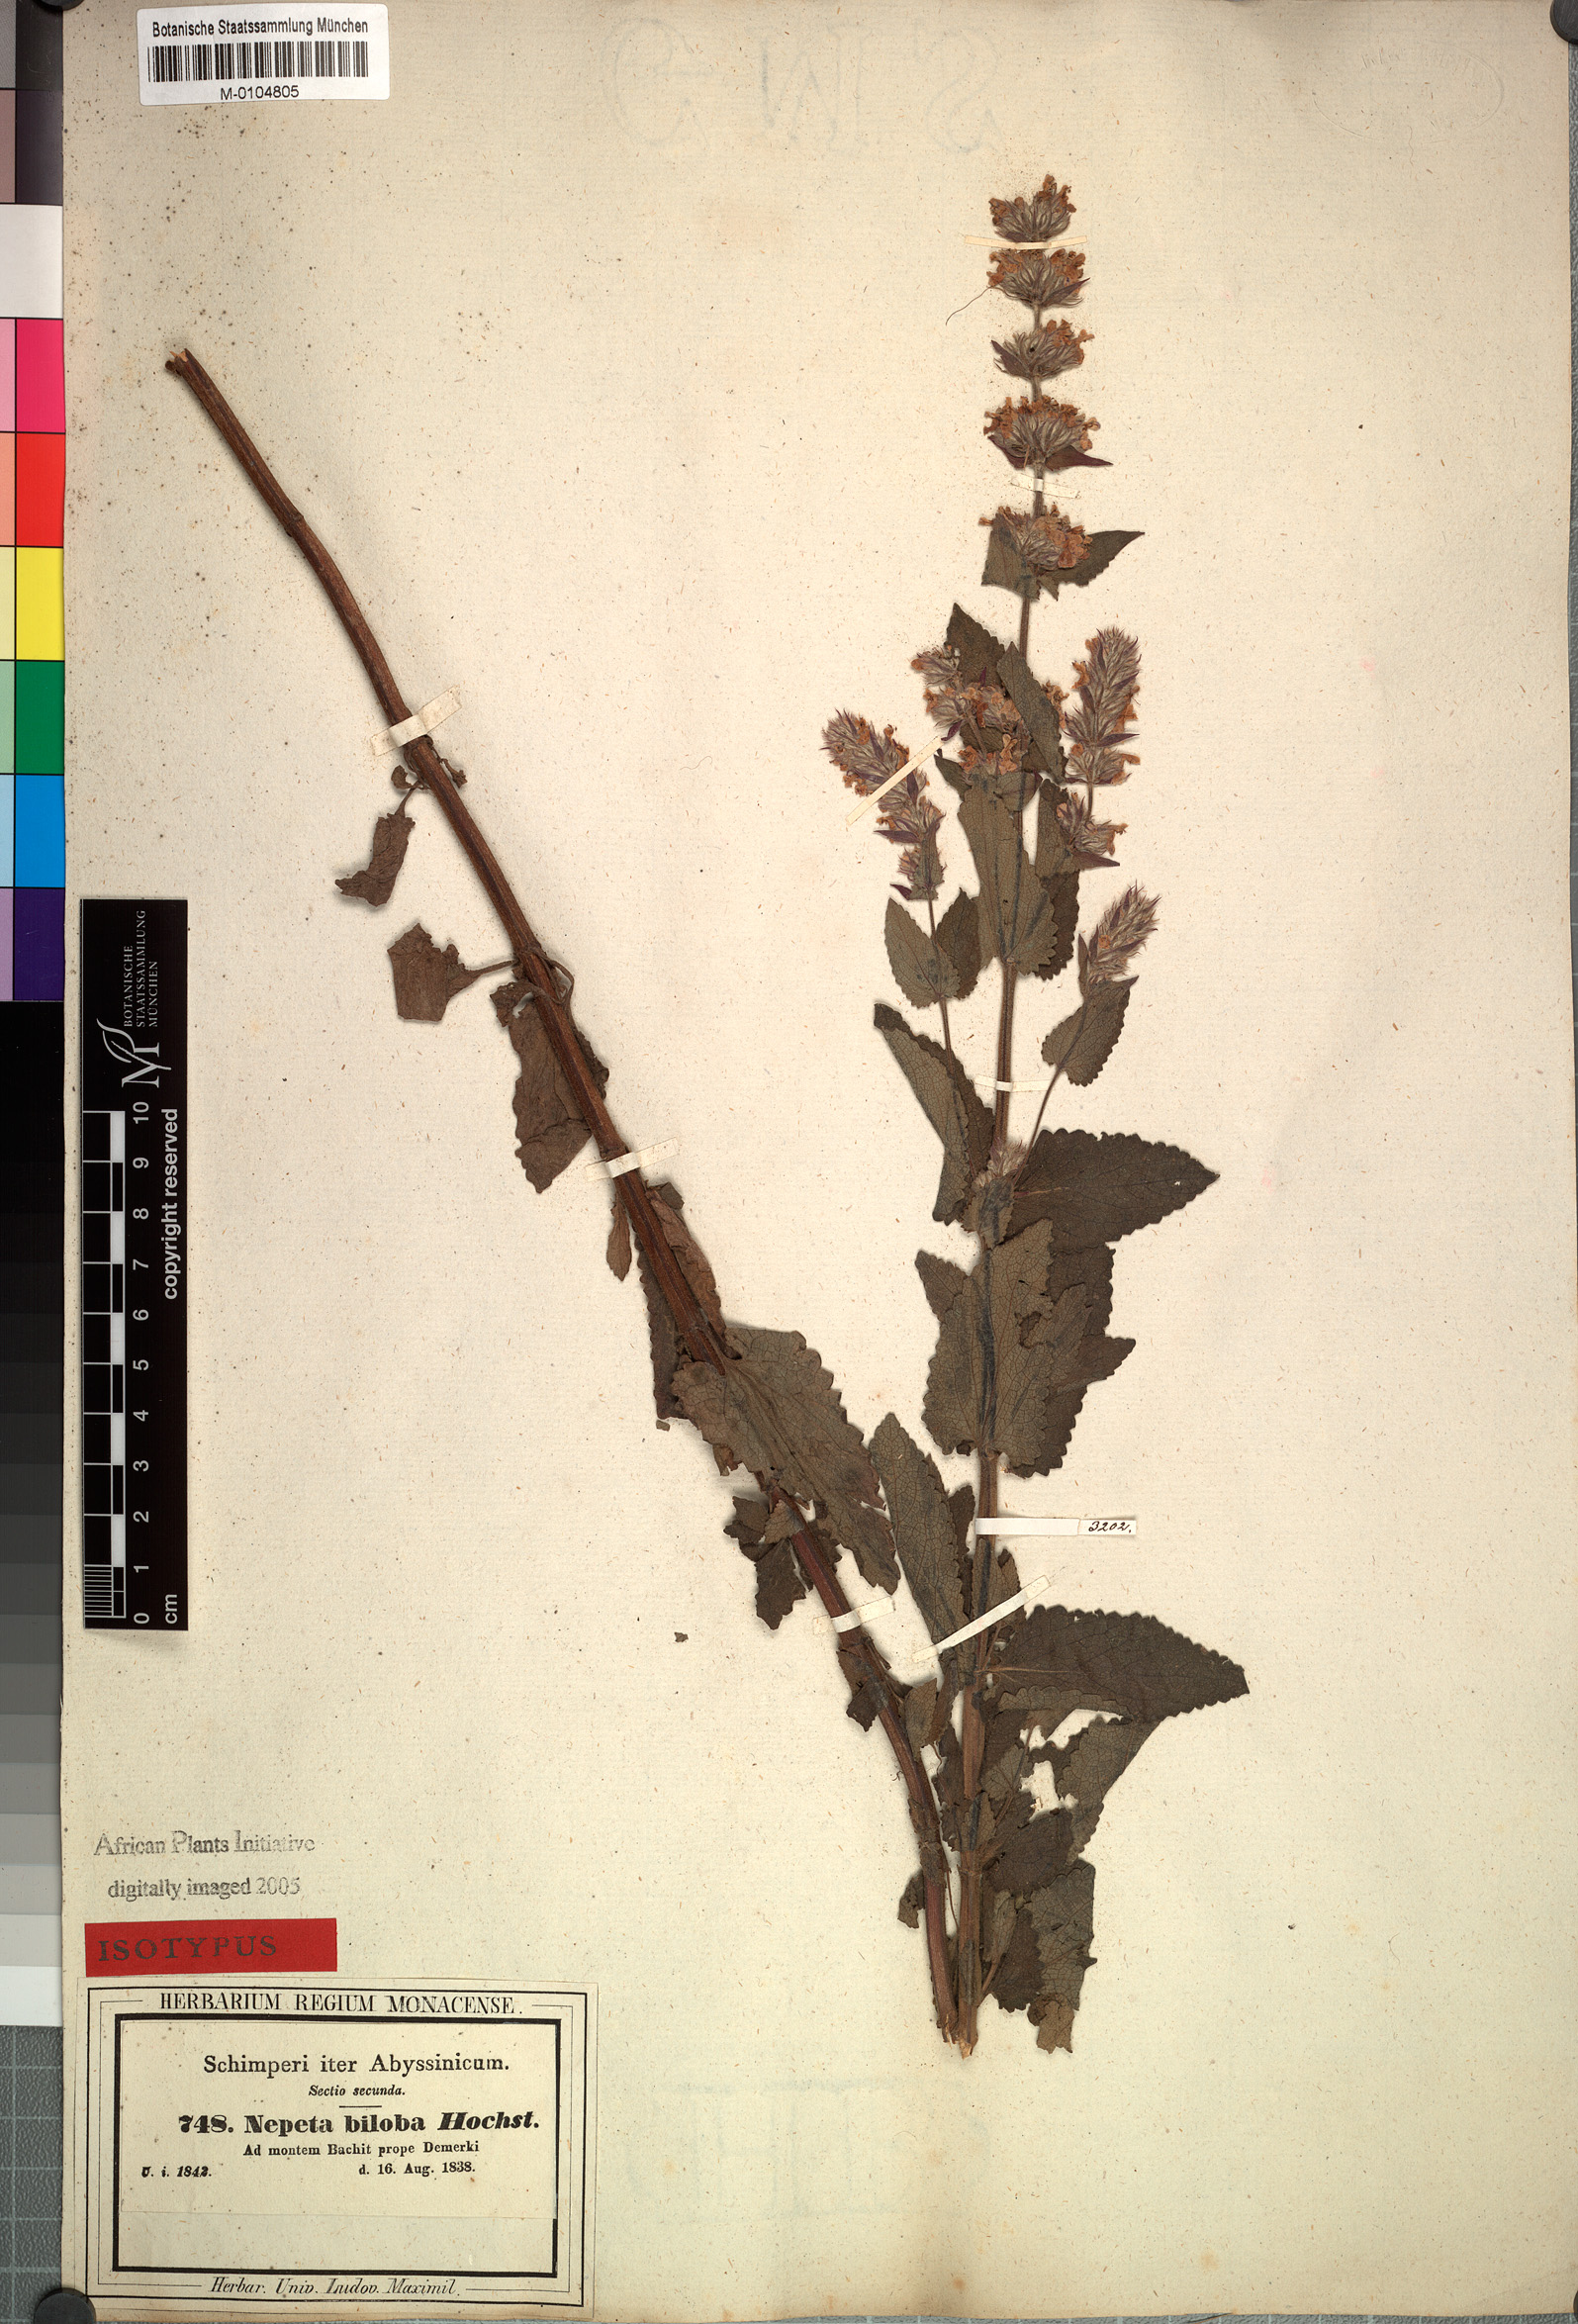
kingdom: Plantae
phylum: Tracheophyta
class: Magnoliopsida
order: Lamiales
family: Lamiaceae
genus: Nepeta
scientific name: Nepeta azurea
